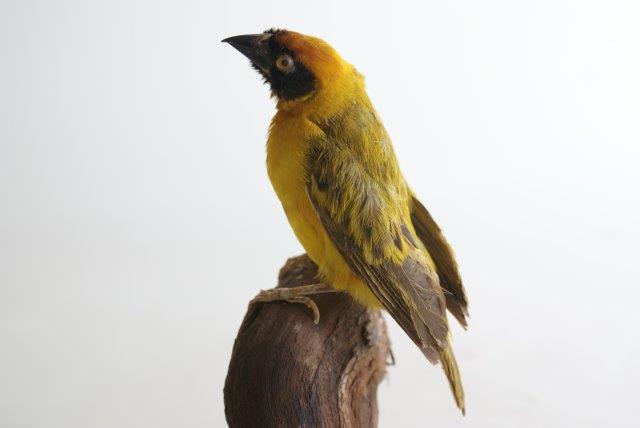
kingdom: Animalia
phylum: Chordata
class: Aves
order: Passeriformes
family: Ploceidae
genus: Ploceus
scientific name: Ploceus intermedius
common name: Lesser masked weaver
